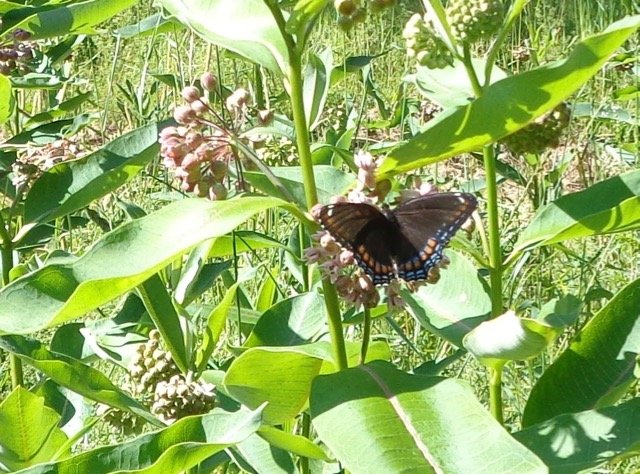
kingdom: Animalia
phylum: Arthropoda
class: Insecta
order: Lepidoptera
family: Nymphalidae
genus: Limenitis
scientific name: Limenitis
